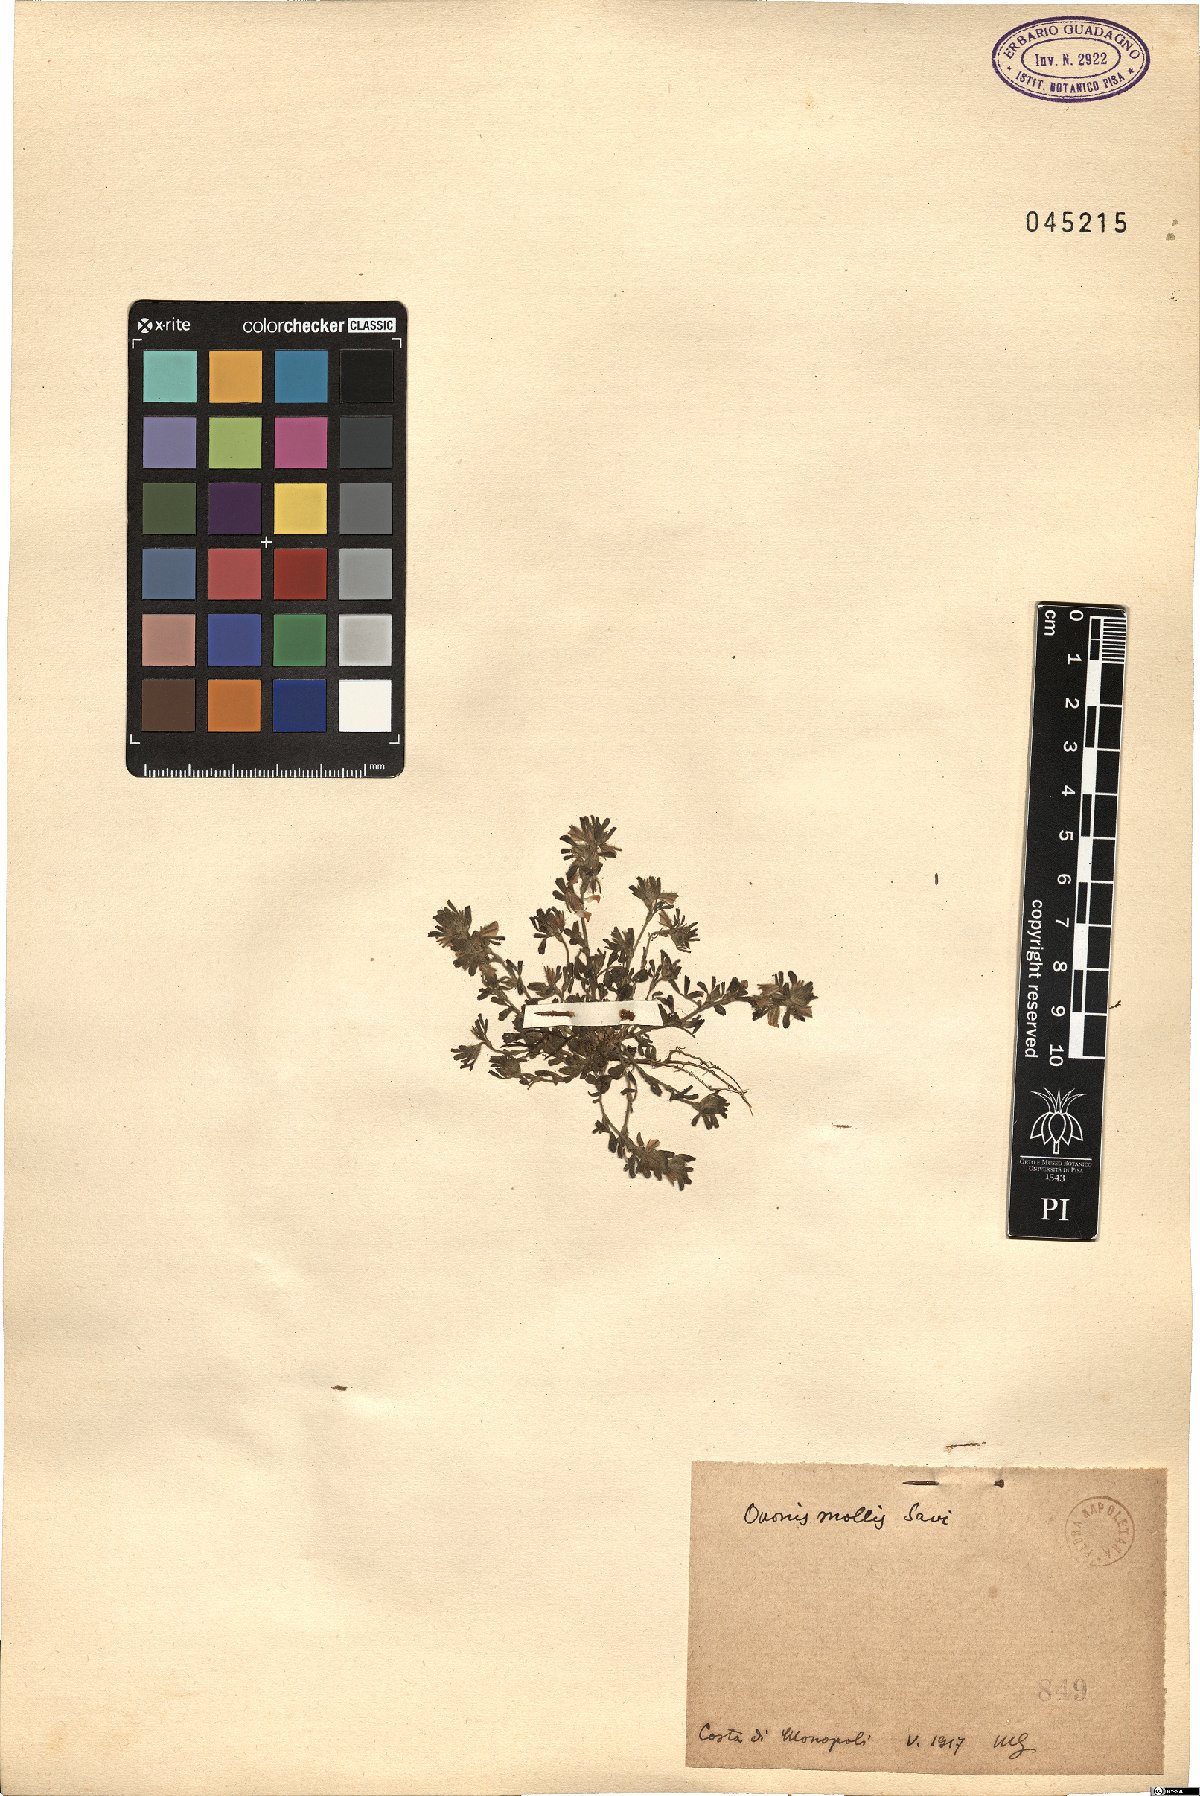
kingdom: Plantae
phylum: Tracheophyta
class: Magnoliopsida
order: Fabales
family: Fabaceae
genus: Ononis
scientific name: Ononis reclinata
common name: Small restharrow
